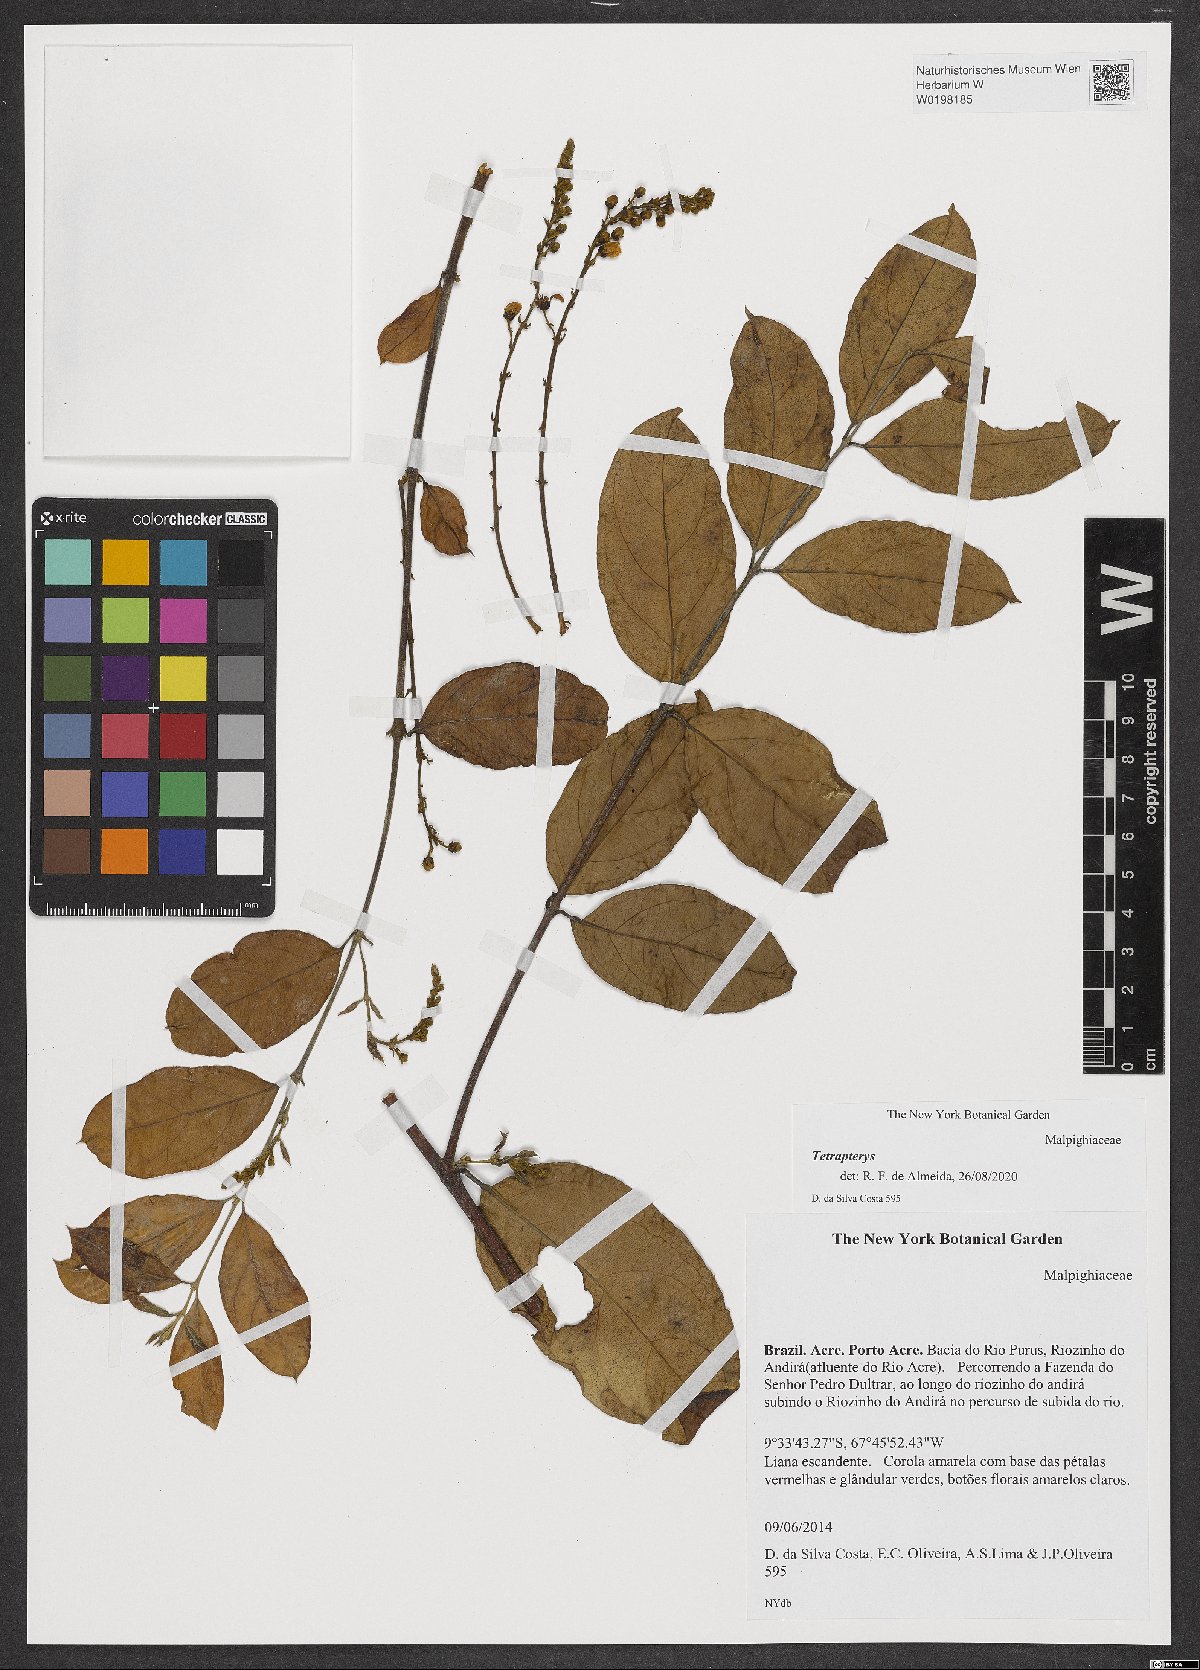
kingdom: Plantae
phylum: Tracheophyta
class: Magnoliopsida
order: Malpighiales
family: Malpighiaceae
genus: Tetrapterys
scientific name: Tetrapterys
